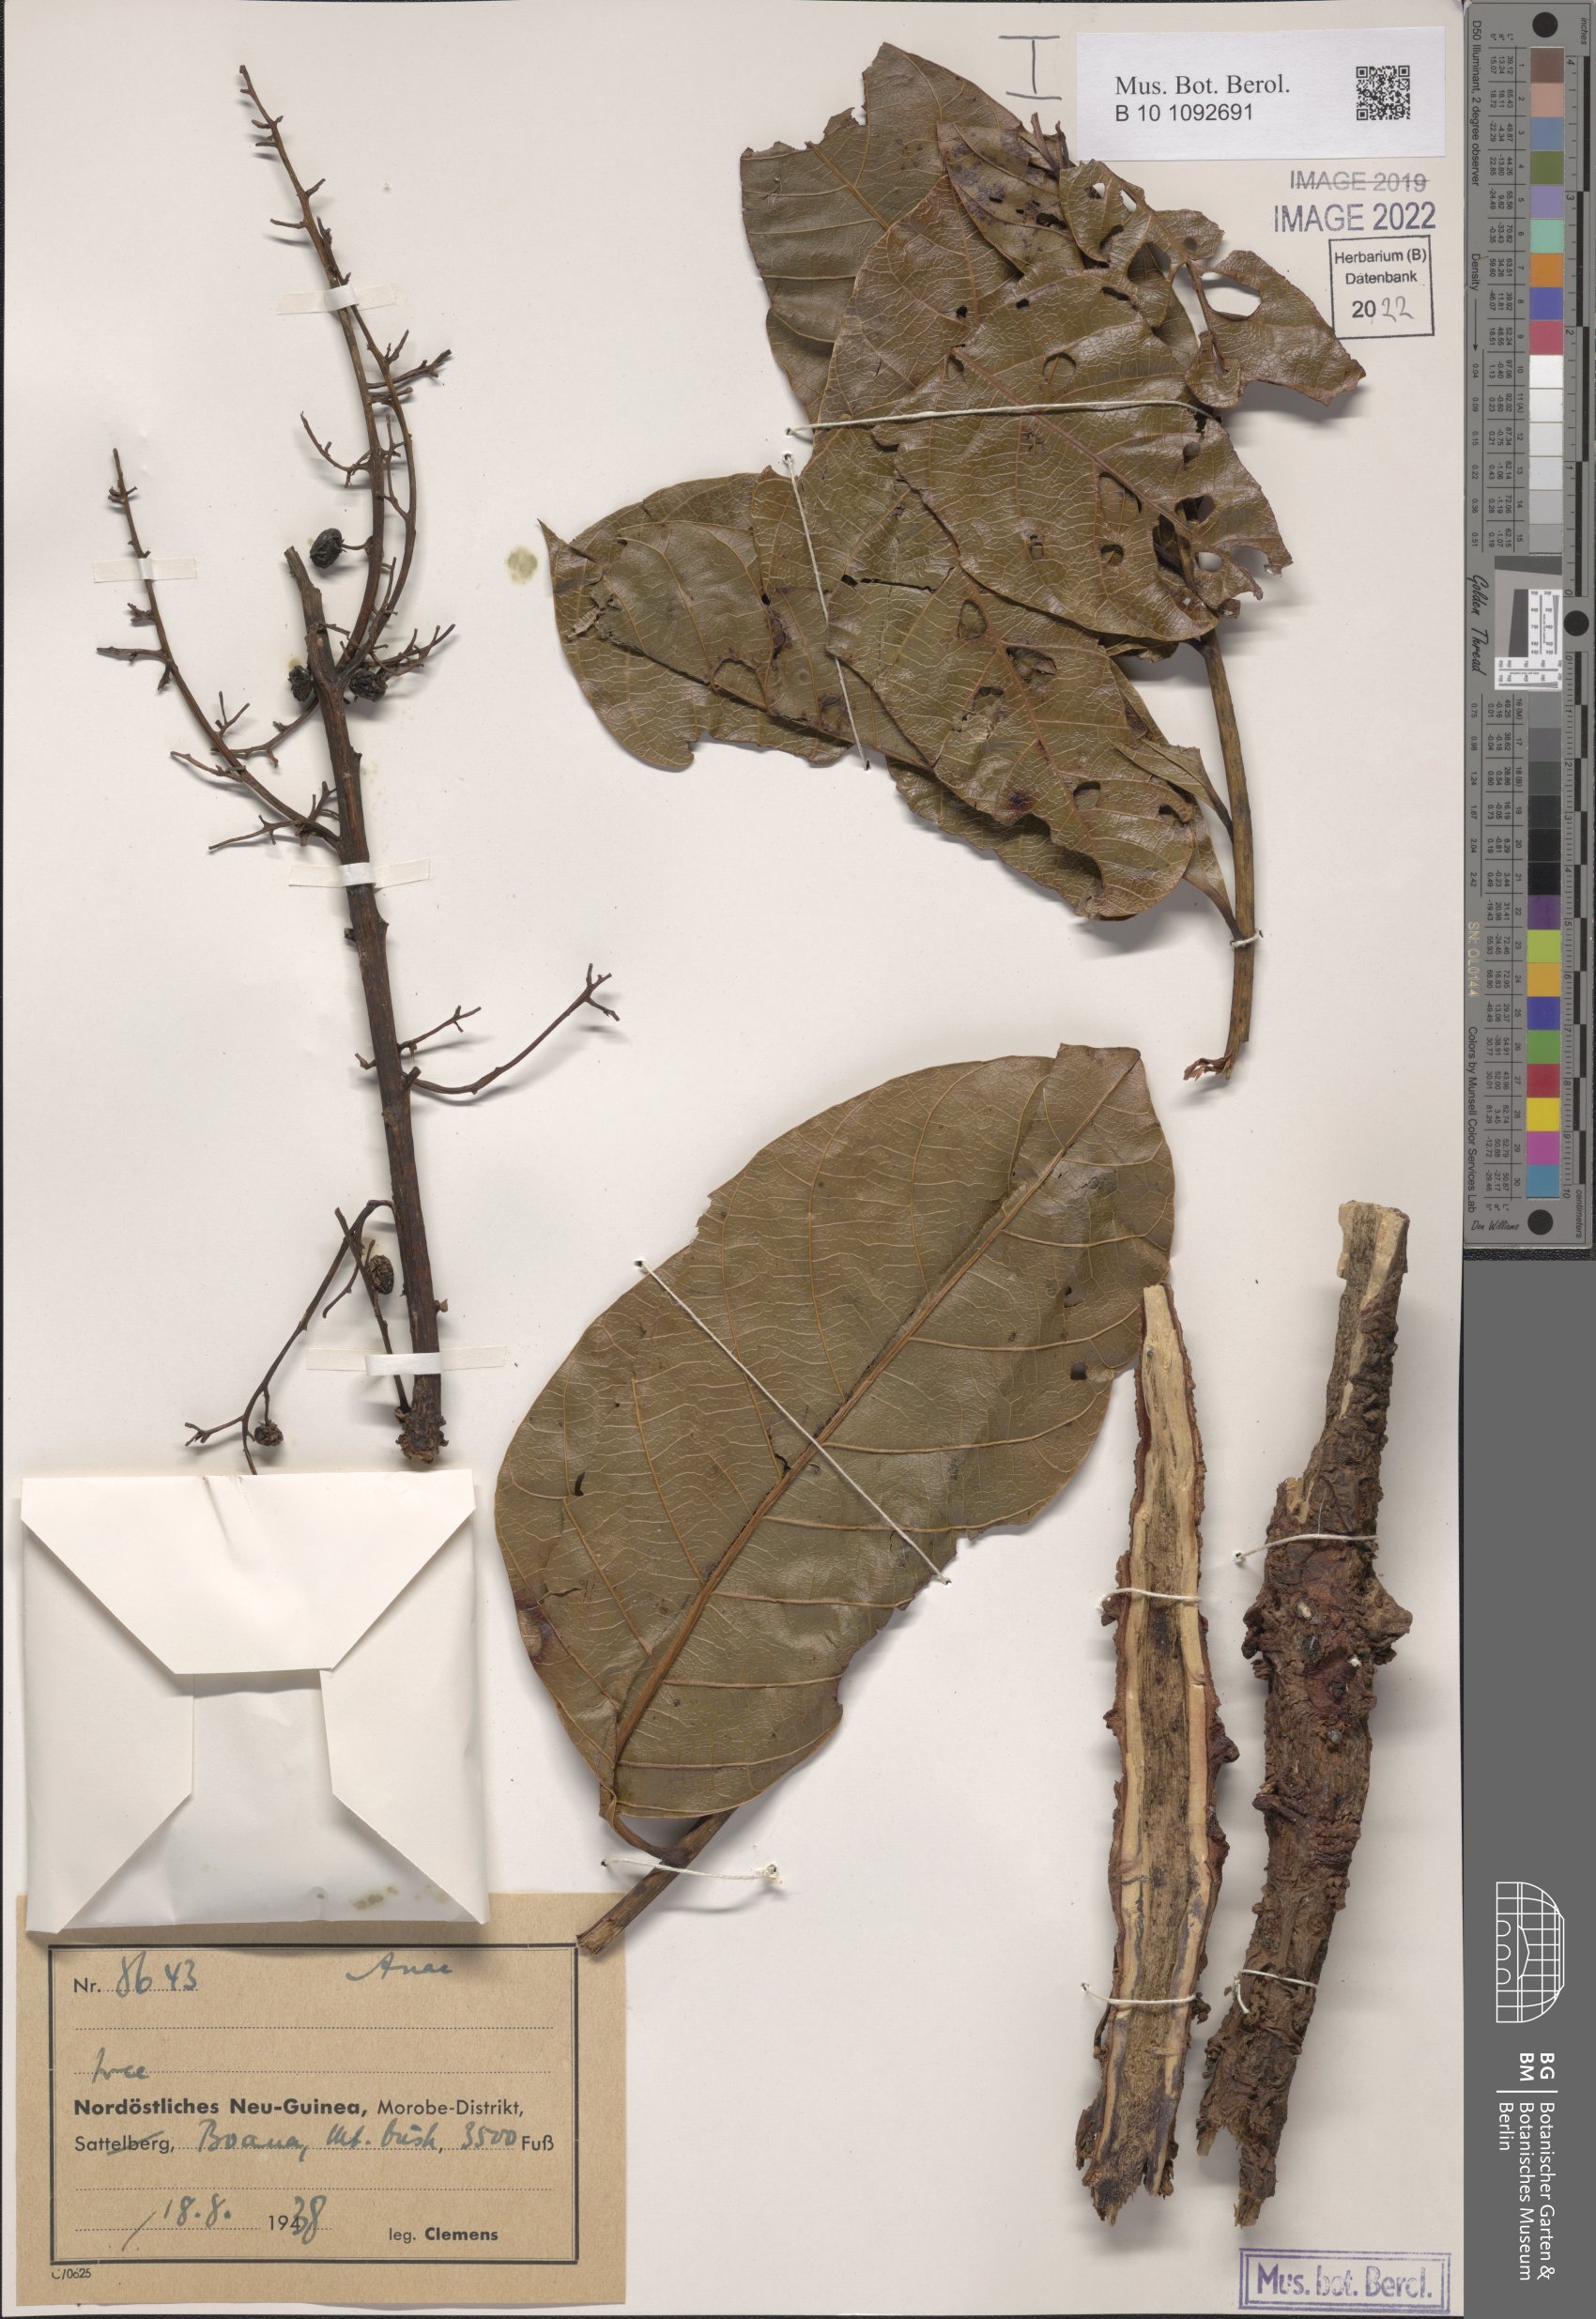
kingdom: Plantae
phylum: Tracheophyta
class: Magnoliopsida
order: Sapindales
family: Anacardiaceae
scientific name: Anacardiaceae
